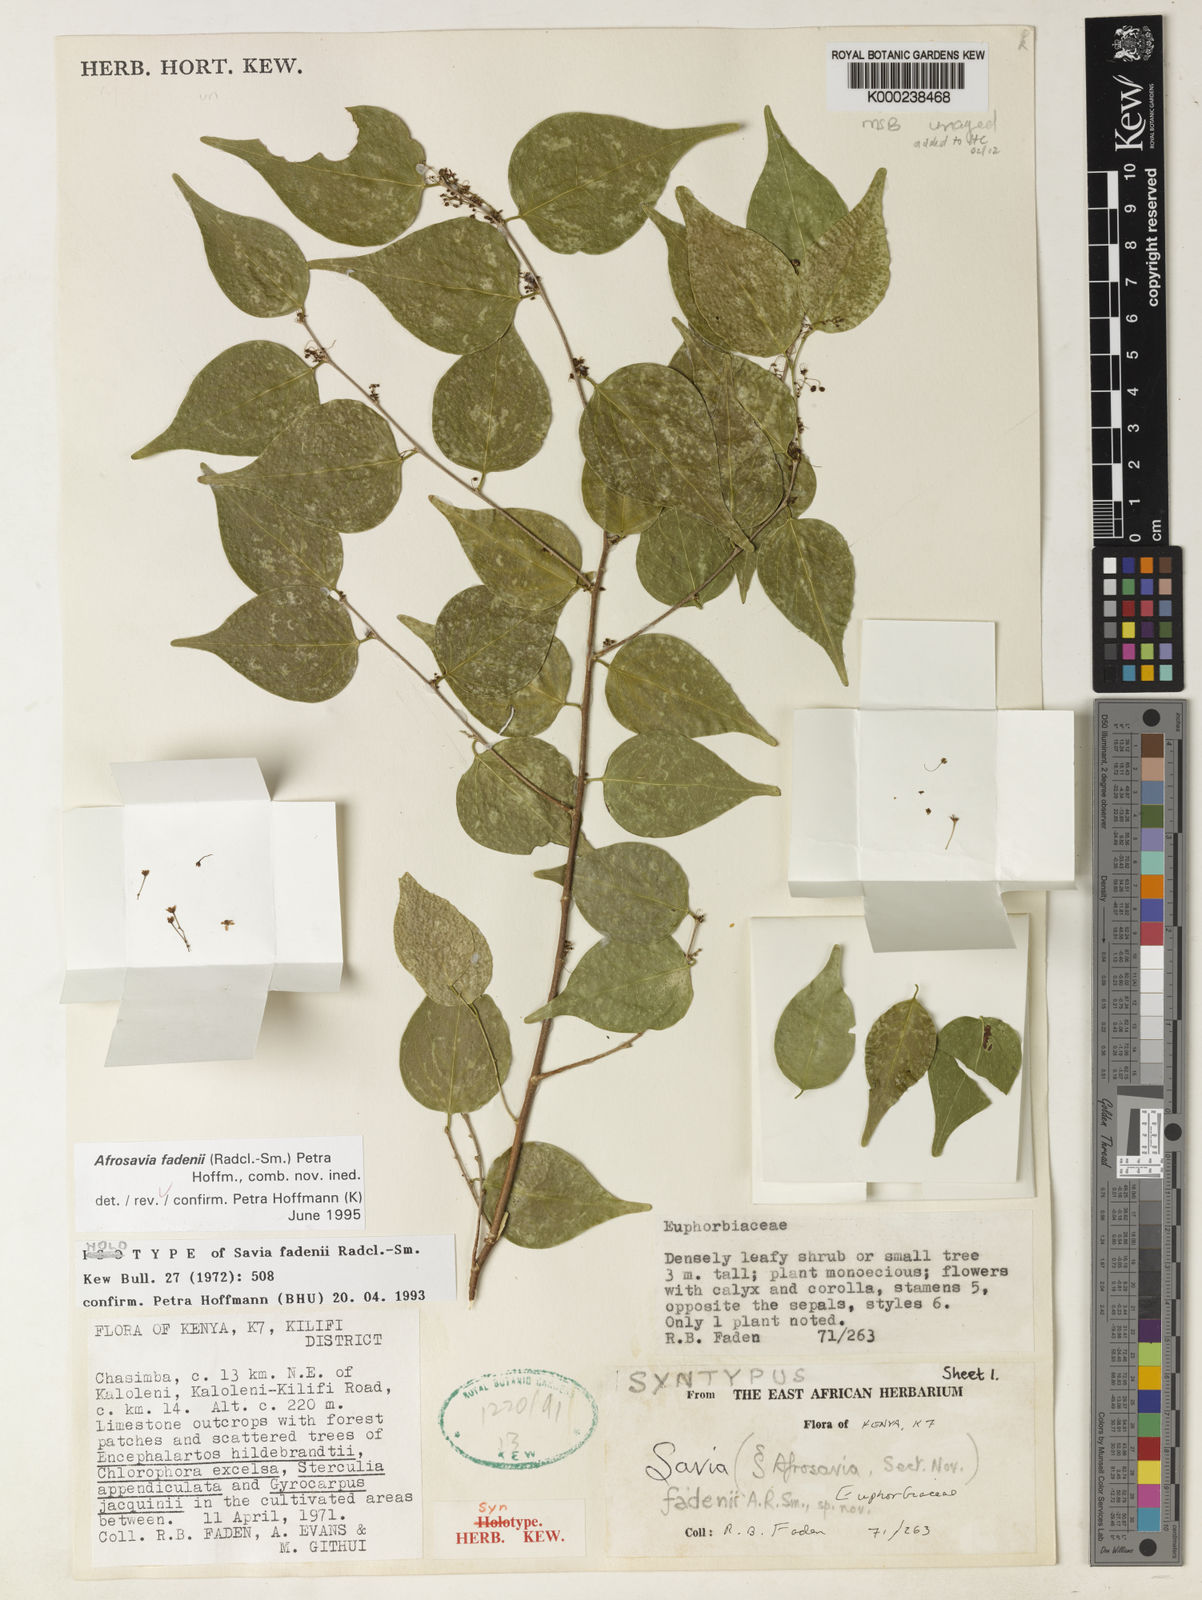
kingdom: Plantae
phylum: Tracheophyta
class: Magnoliopsida
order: Malpighiales
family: Phyllanthaceae
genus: Wielandia
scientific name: Wielandia fadenii
